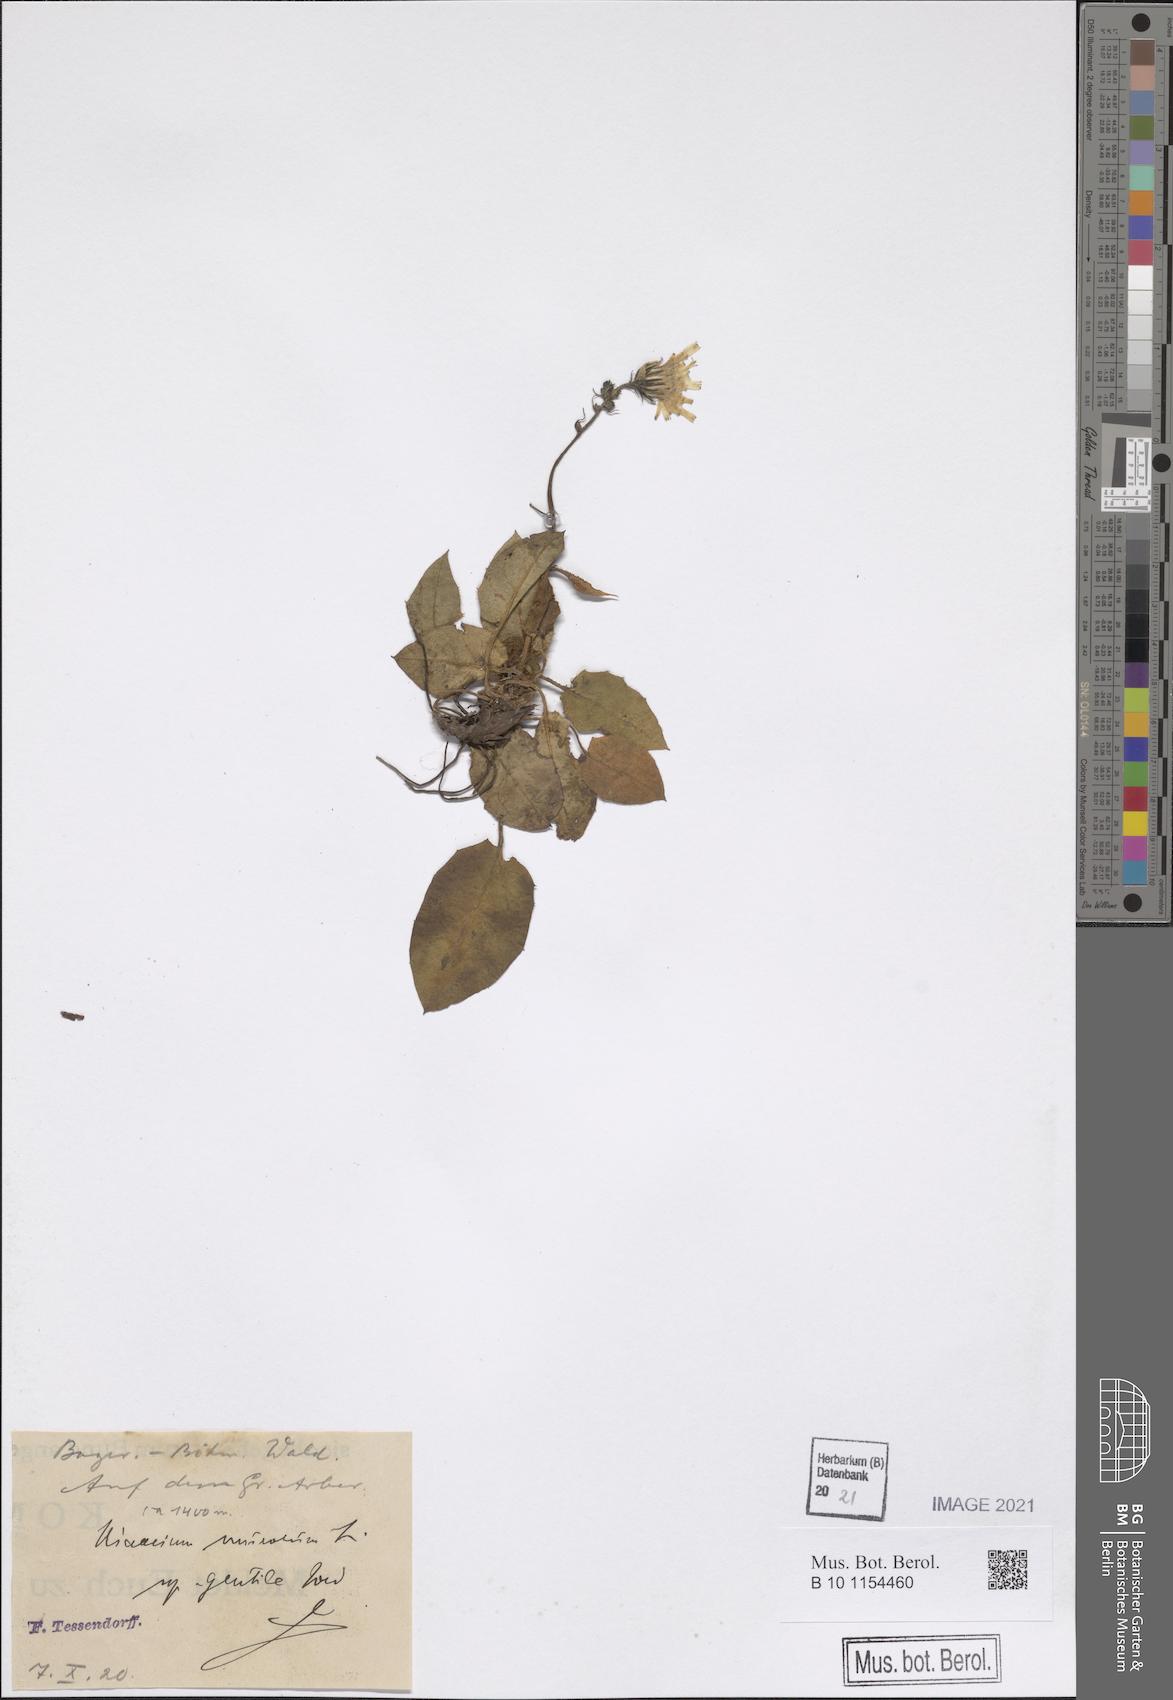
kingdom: Plantae
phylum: Tracheophyta
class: Magnoliopsida
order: Asterales
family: Asteraceae
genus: Hieracium
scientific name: Hieracium murorum
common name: Wall hawkweed
